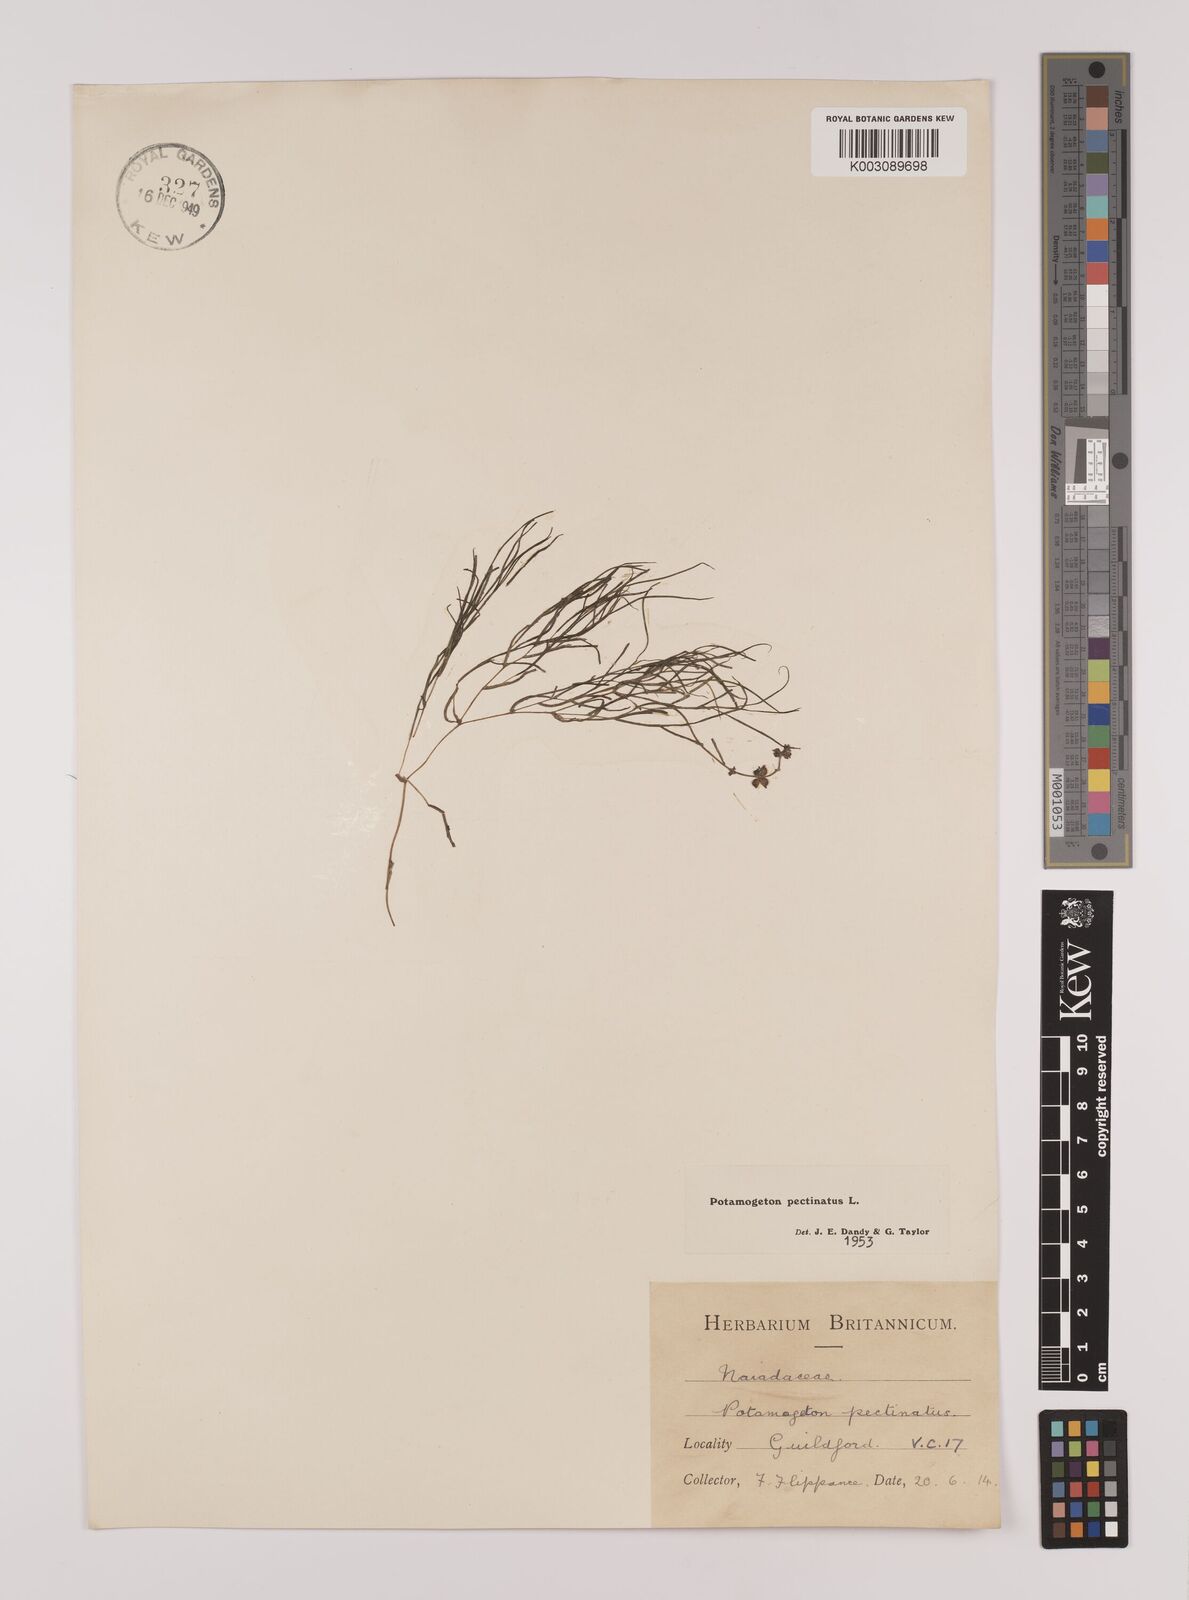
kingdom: Plantae
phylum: Tracheophyta
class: Liliopsida
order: Alismatales
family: Potamogetonaceae
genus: Stuckenia
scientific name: Stuckenia pectinata
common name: Sago pondweed
